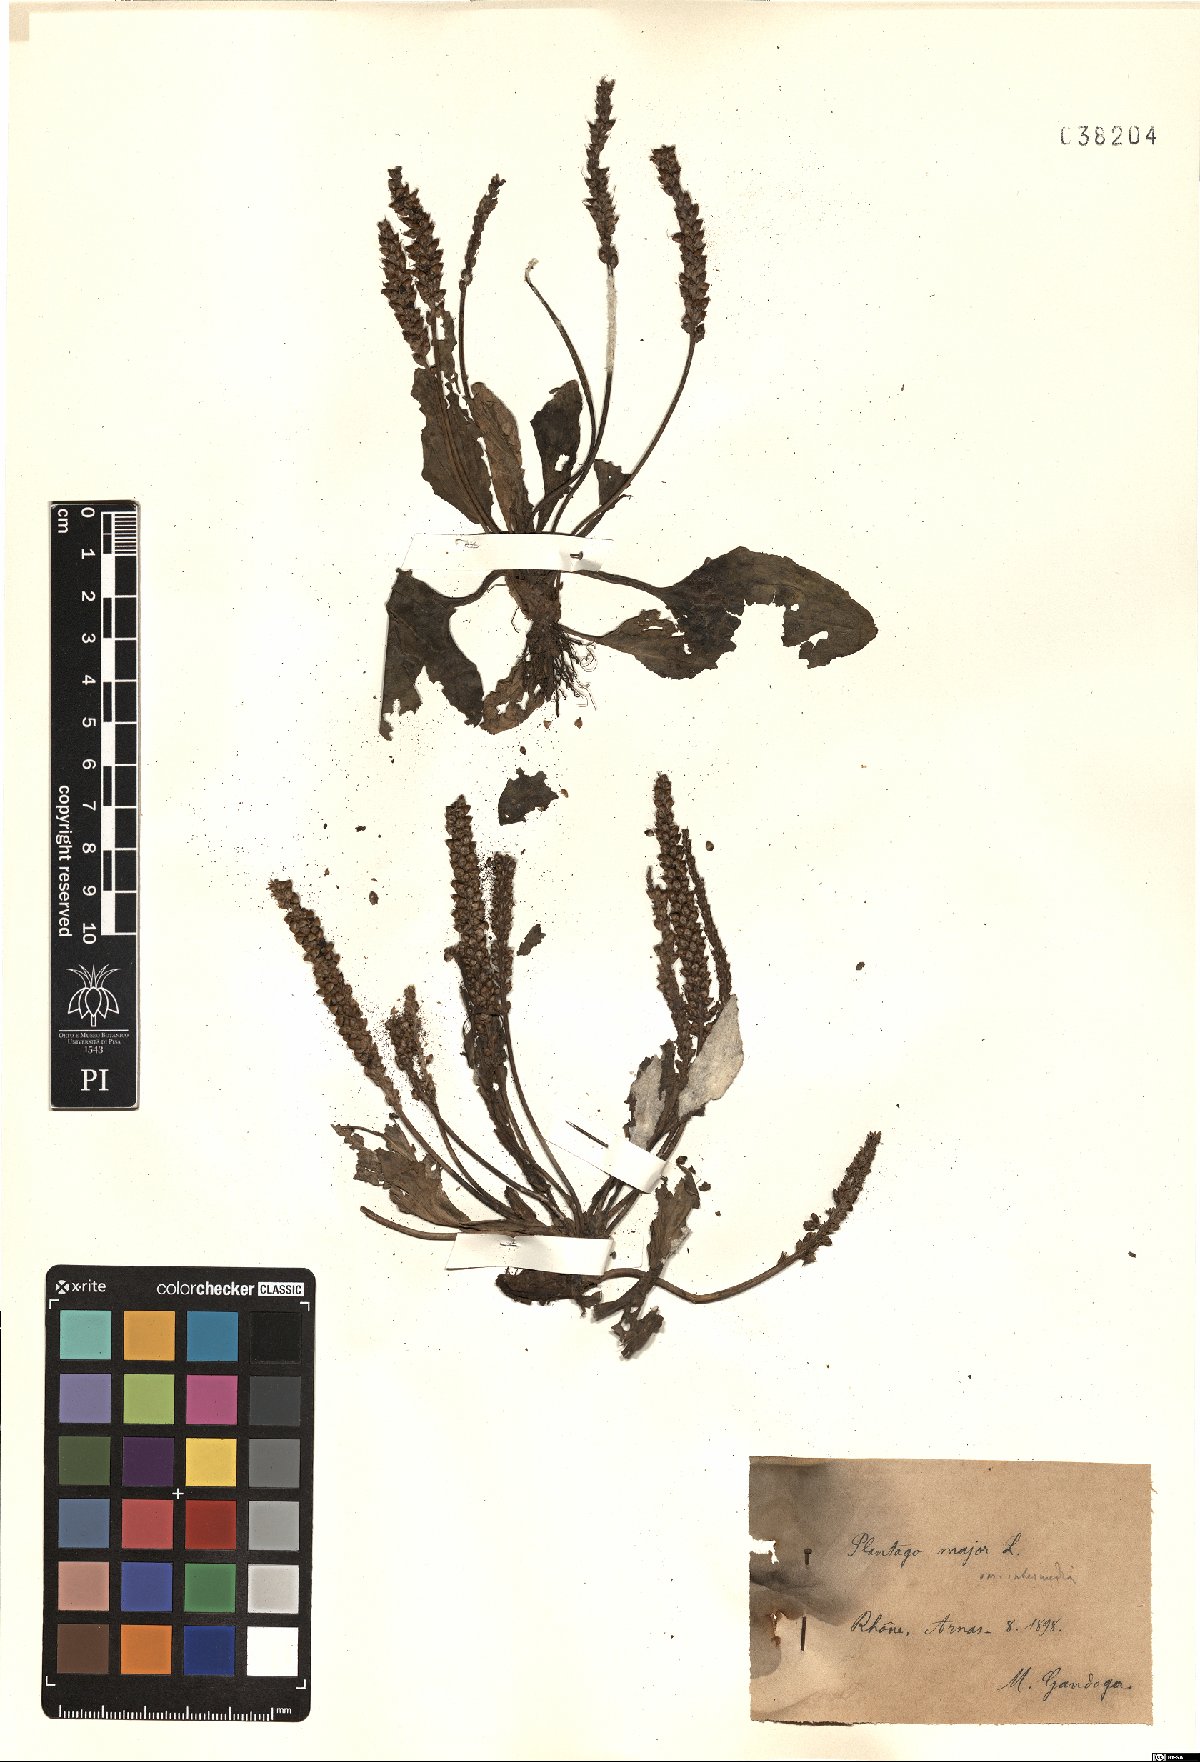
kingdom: Plantae
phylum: Tracheophyta
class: Magnoliopsida
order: Lamiales
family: Plantaginaceae
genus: Plantago
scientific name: Plantago uliginosa
